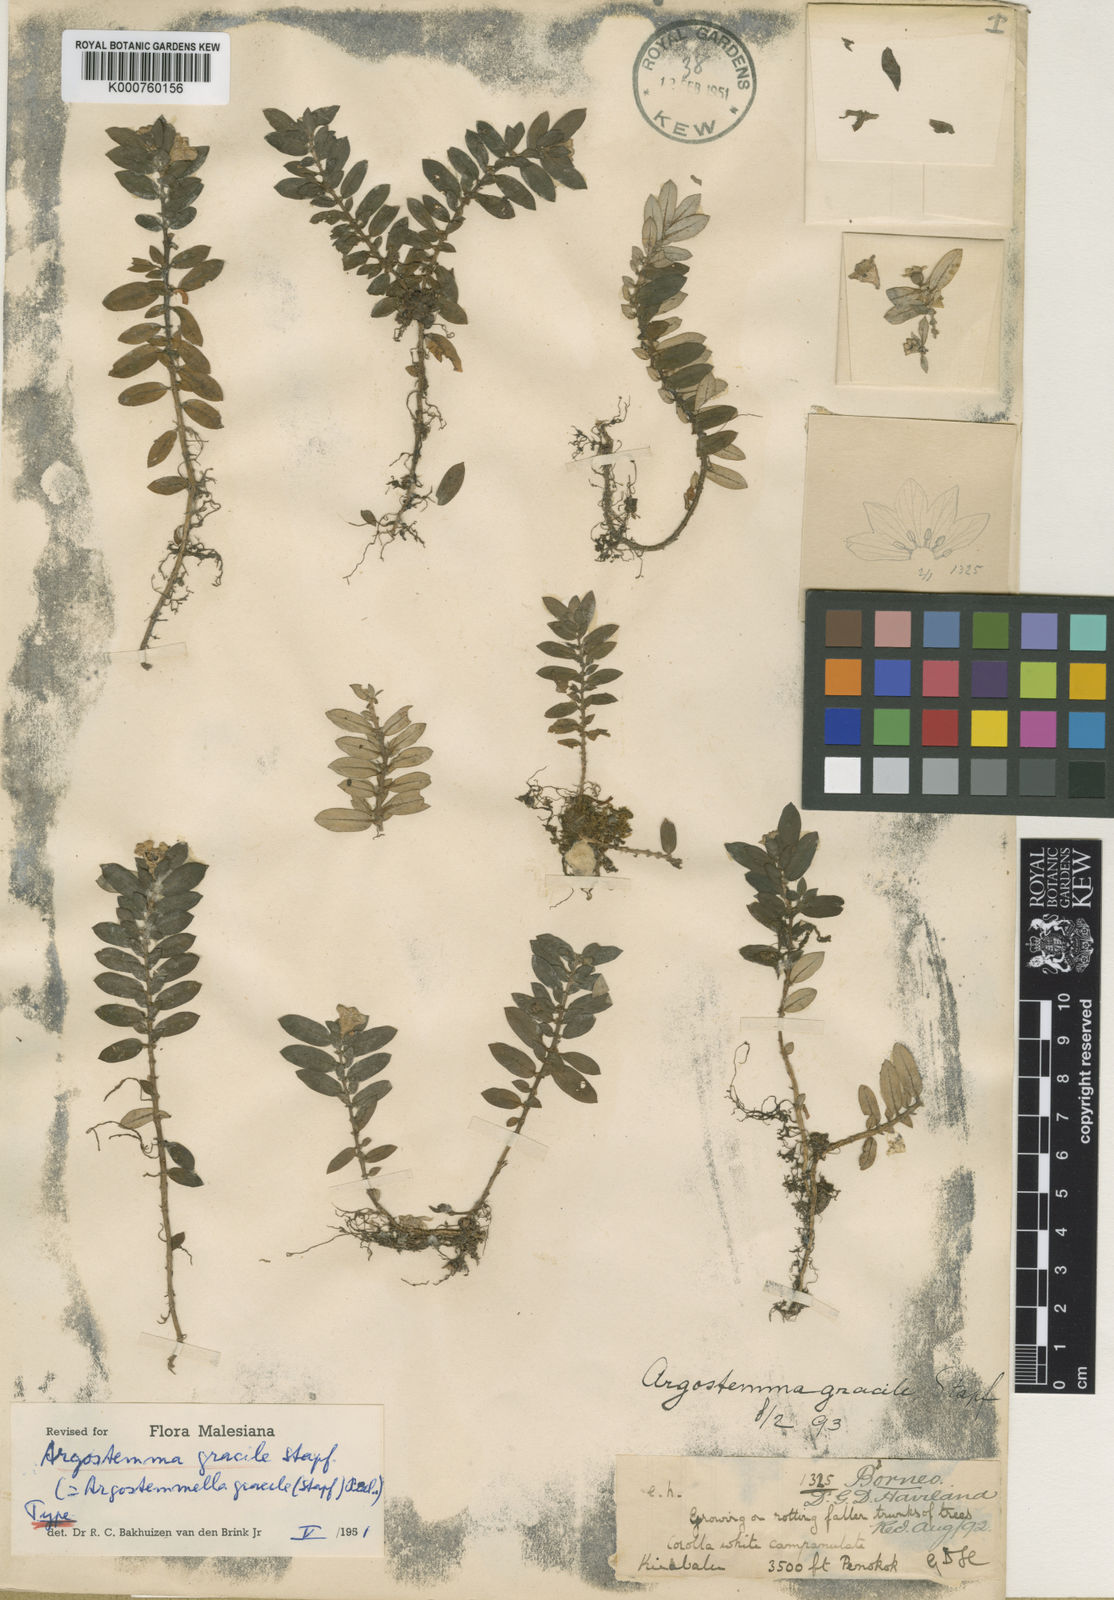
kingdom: Plantae
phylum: Tracheophyta
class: Magnoliopsida
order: Gentianales
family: Rubiaceae
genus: Argostemma
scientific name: Argostemma gracile
